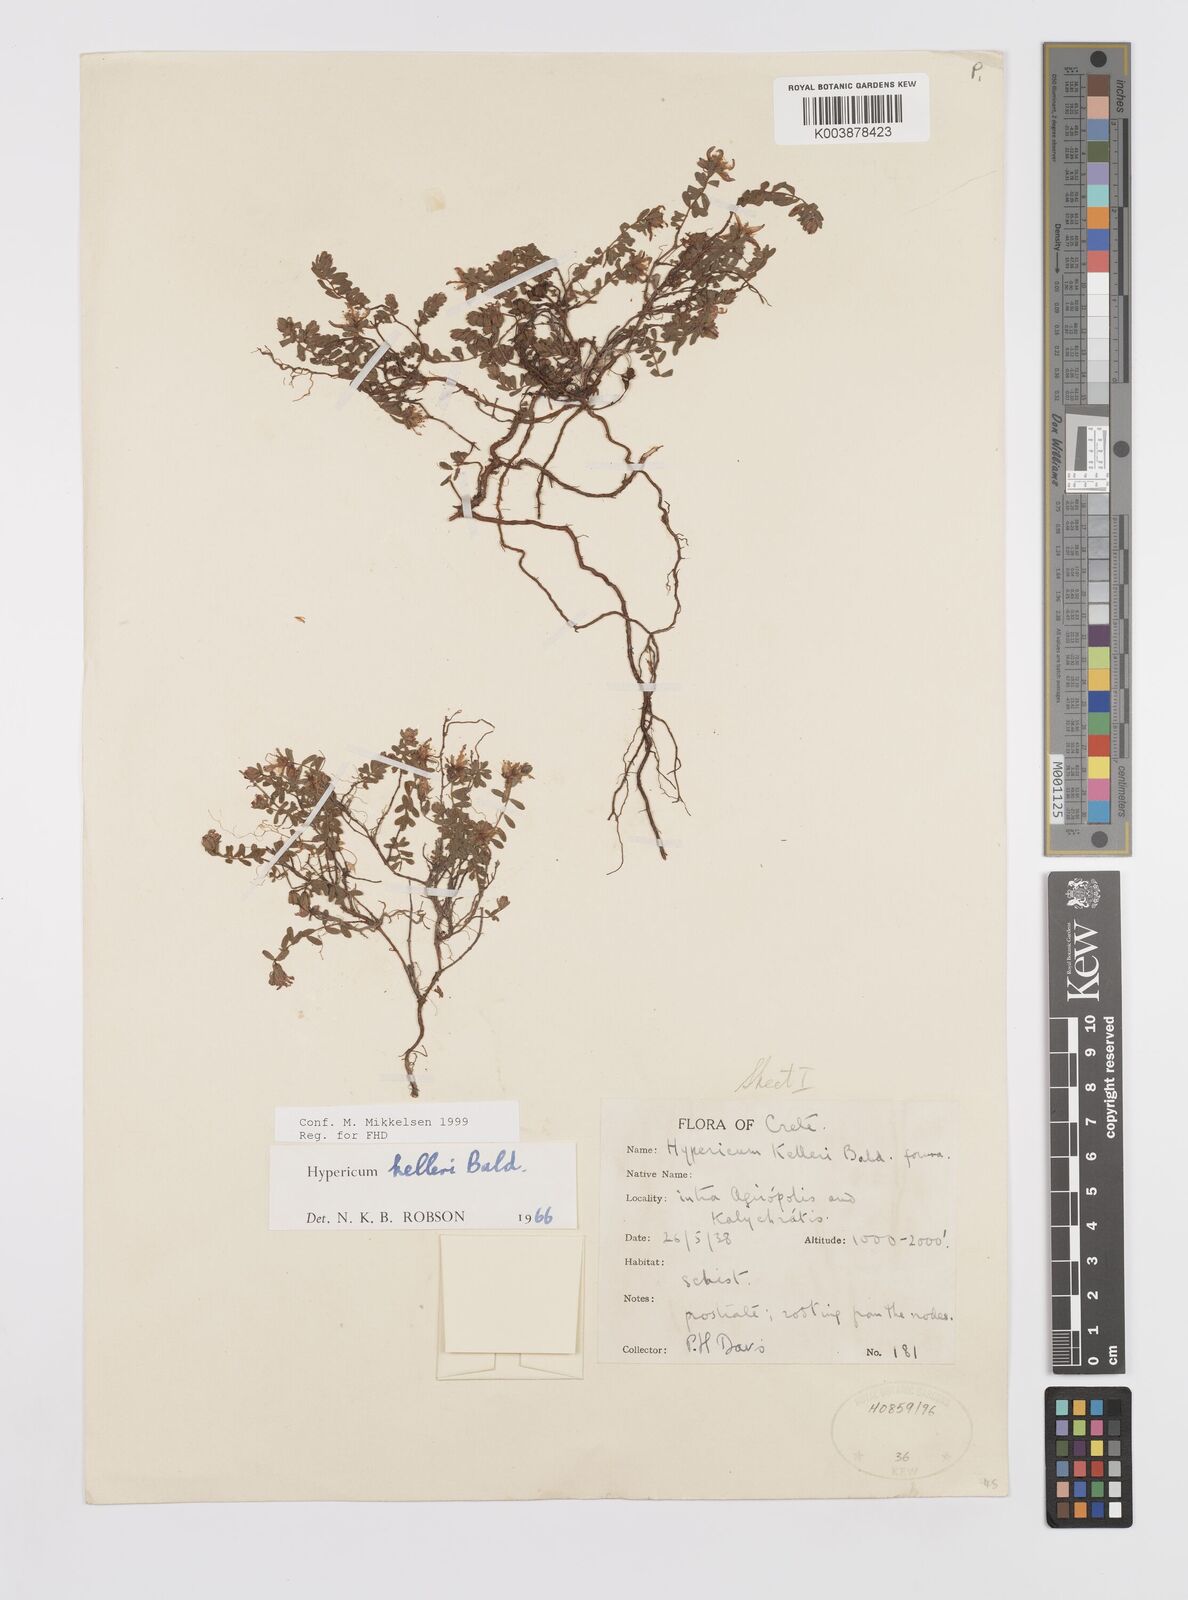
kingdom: Plantae
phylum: Tracheophyta
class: Magnoliopsida
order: Malpighiales
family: Hypericaceae
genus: Hypericum
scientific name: Hypericum kelleri
